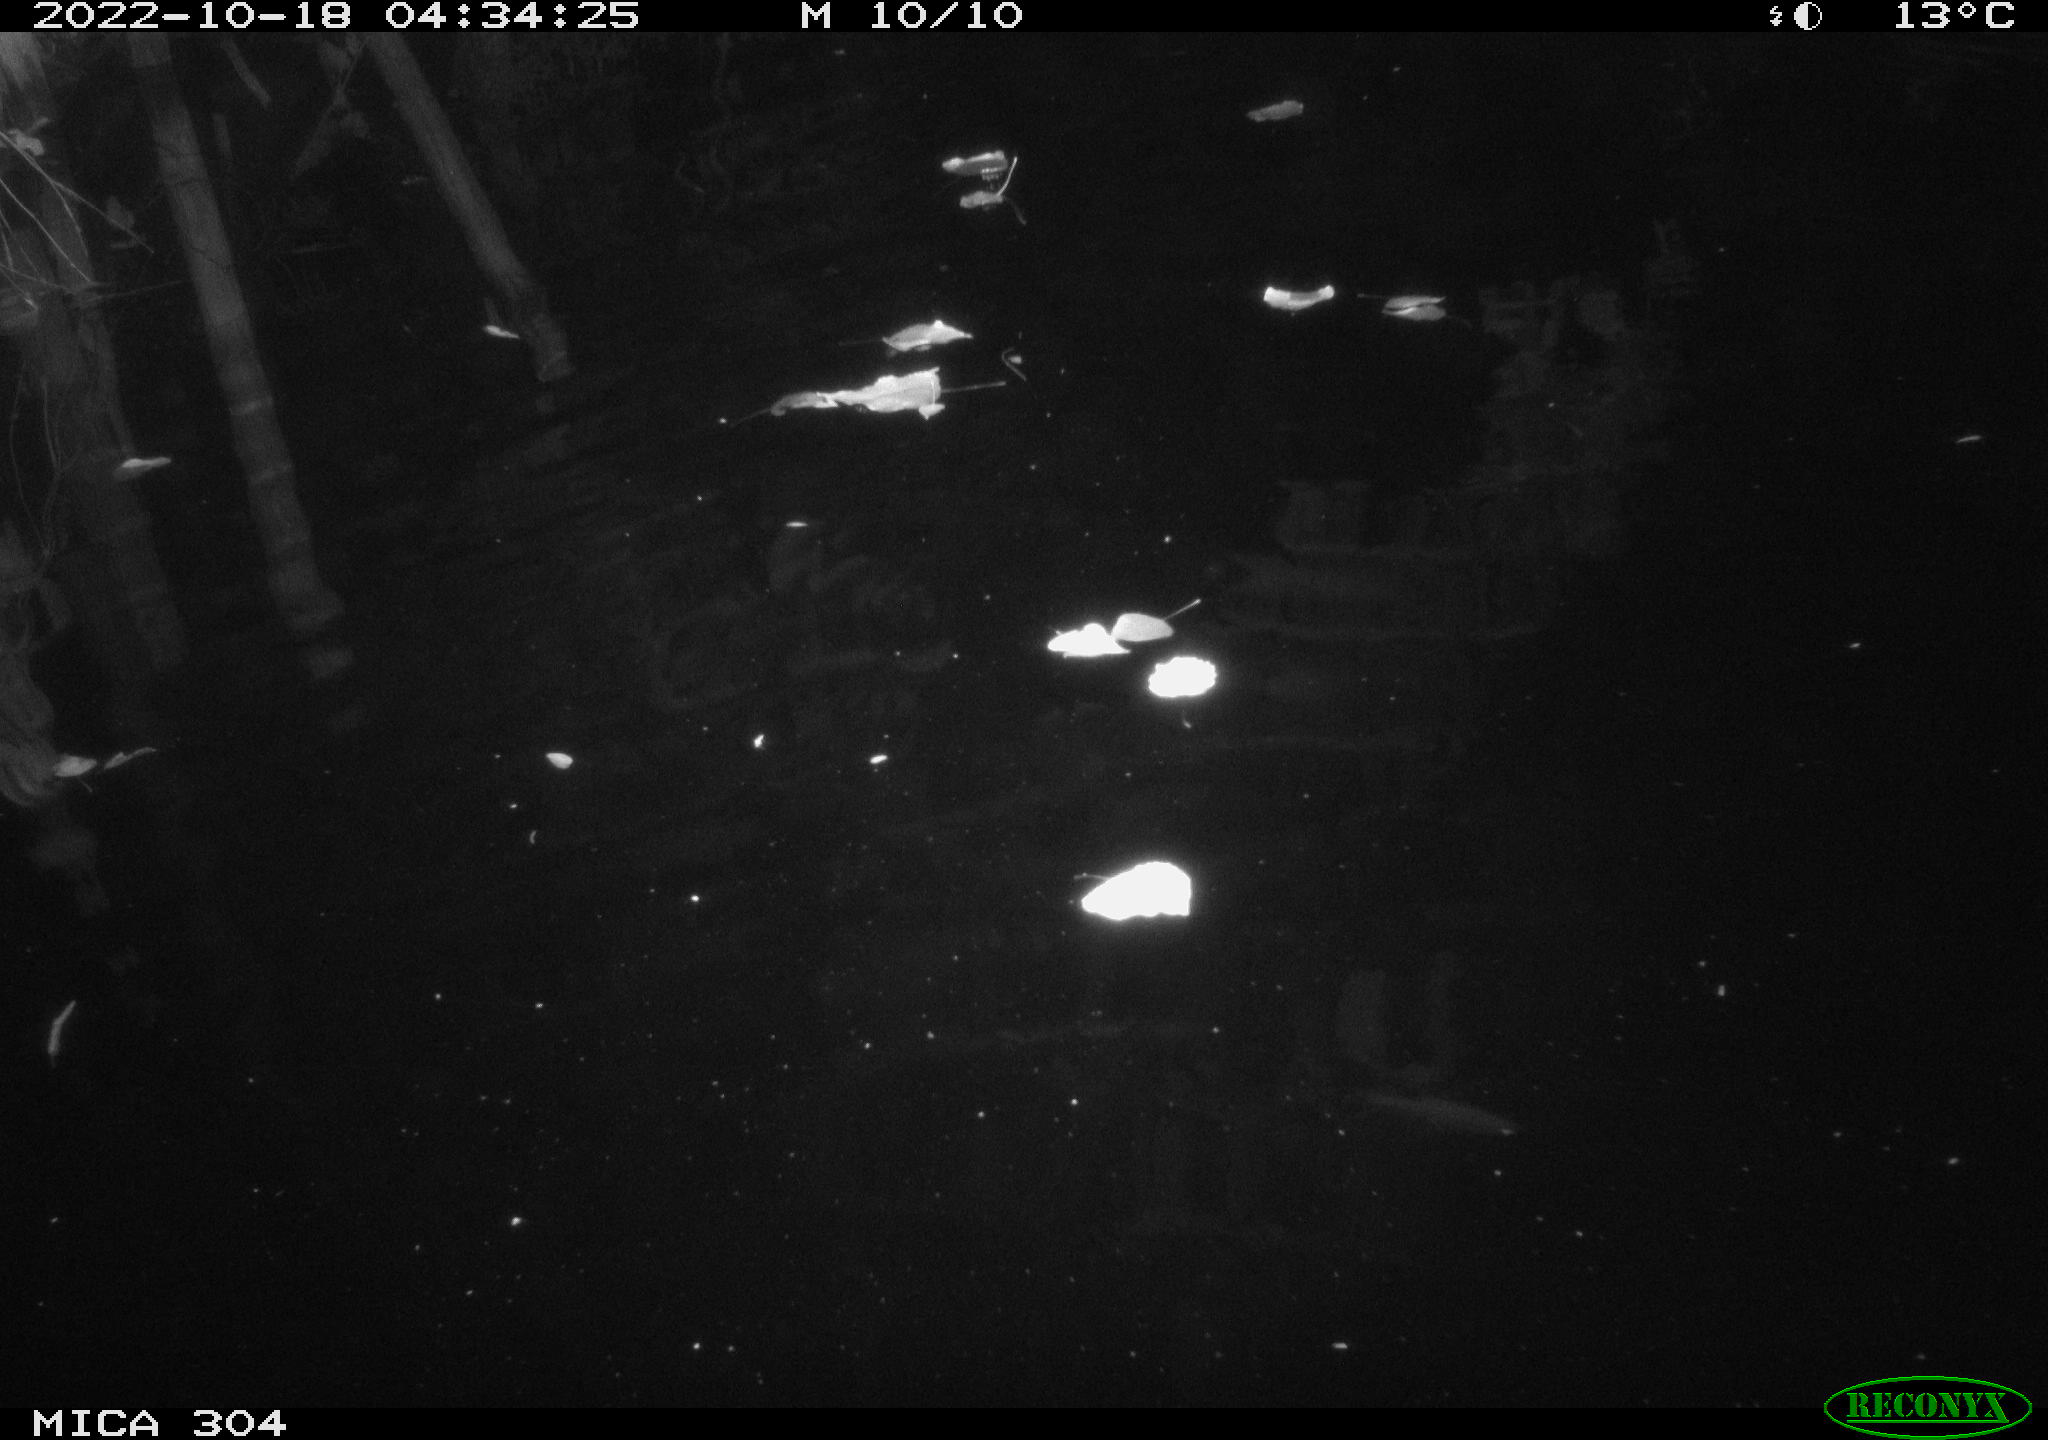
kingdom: Animalia
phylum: Chordata
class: Mammalia
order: Rodentia
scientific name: Rodentia
